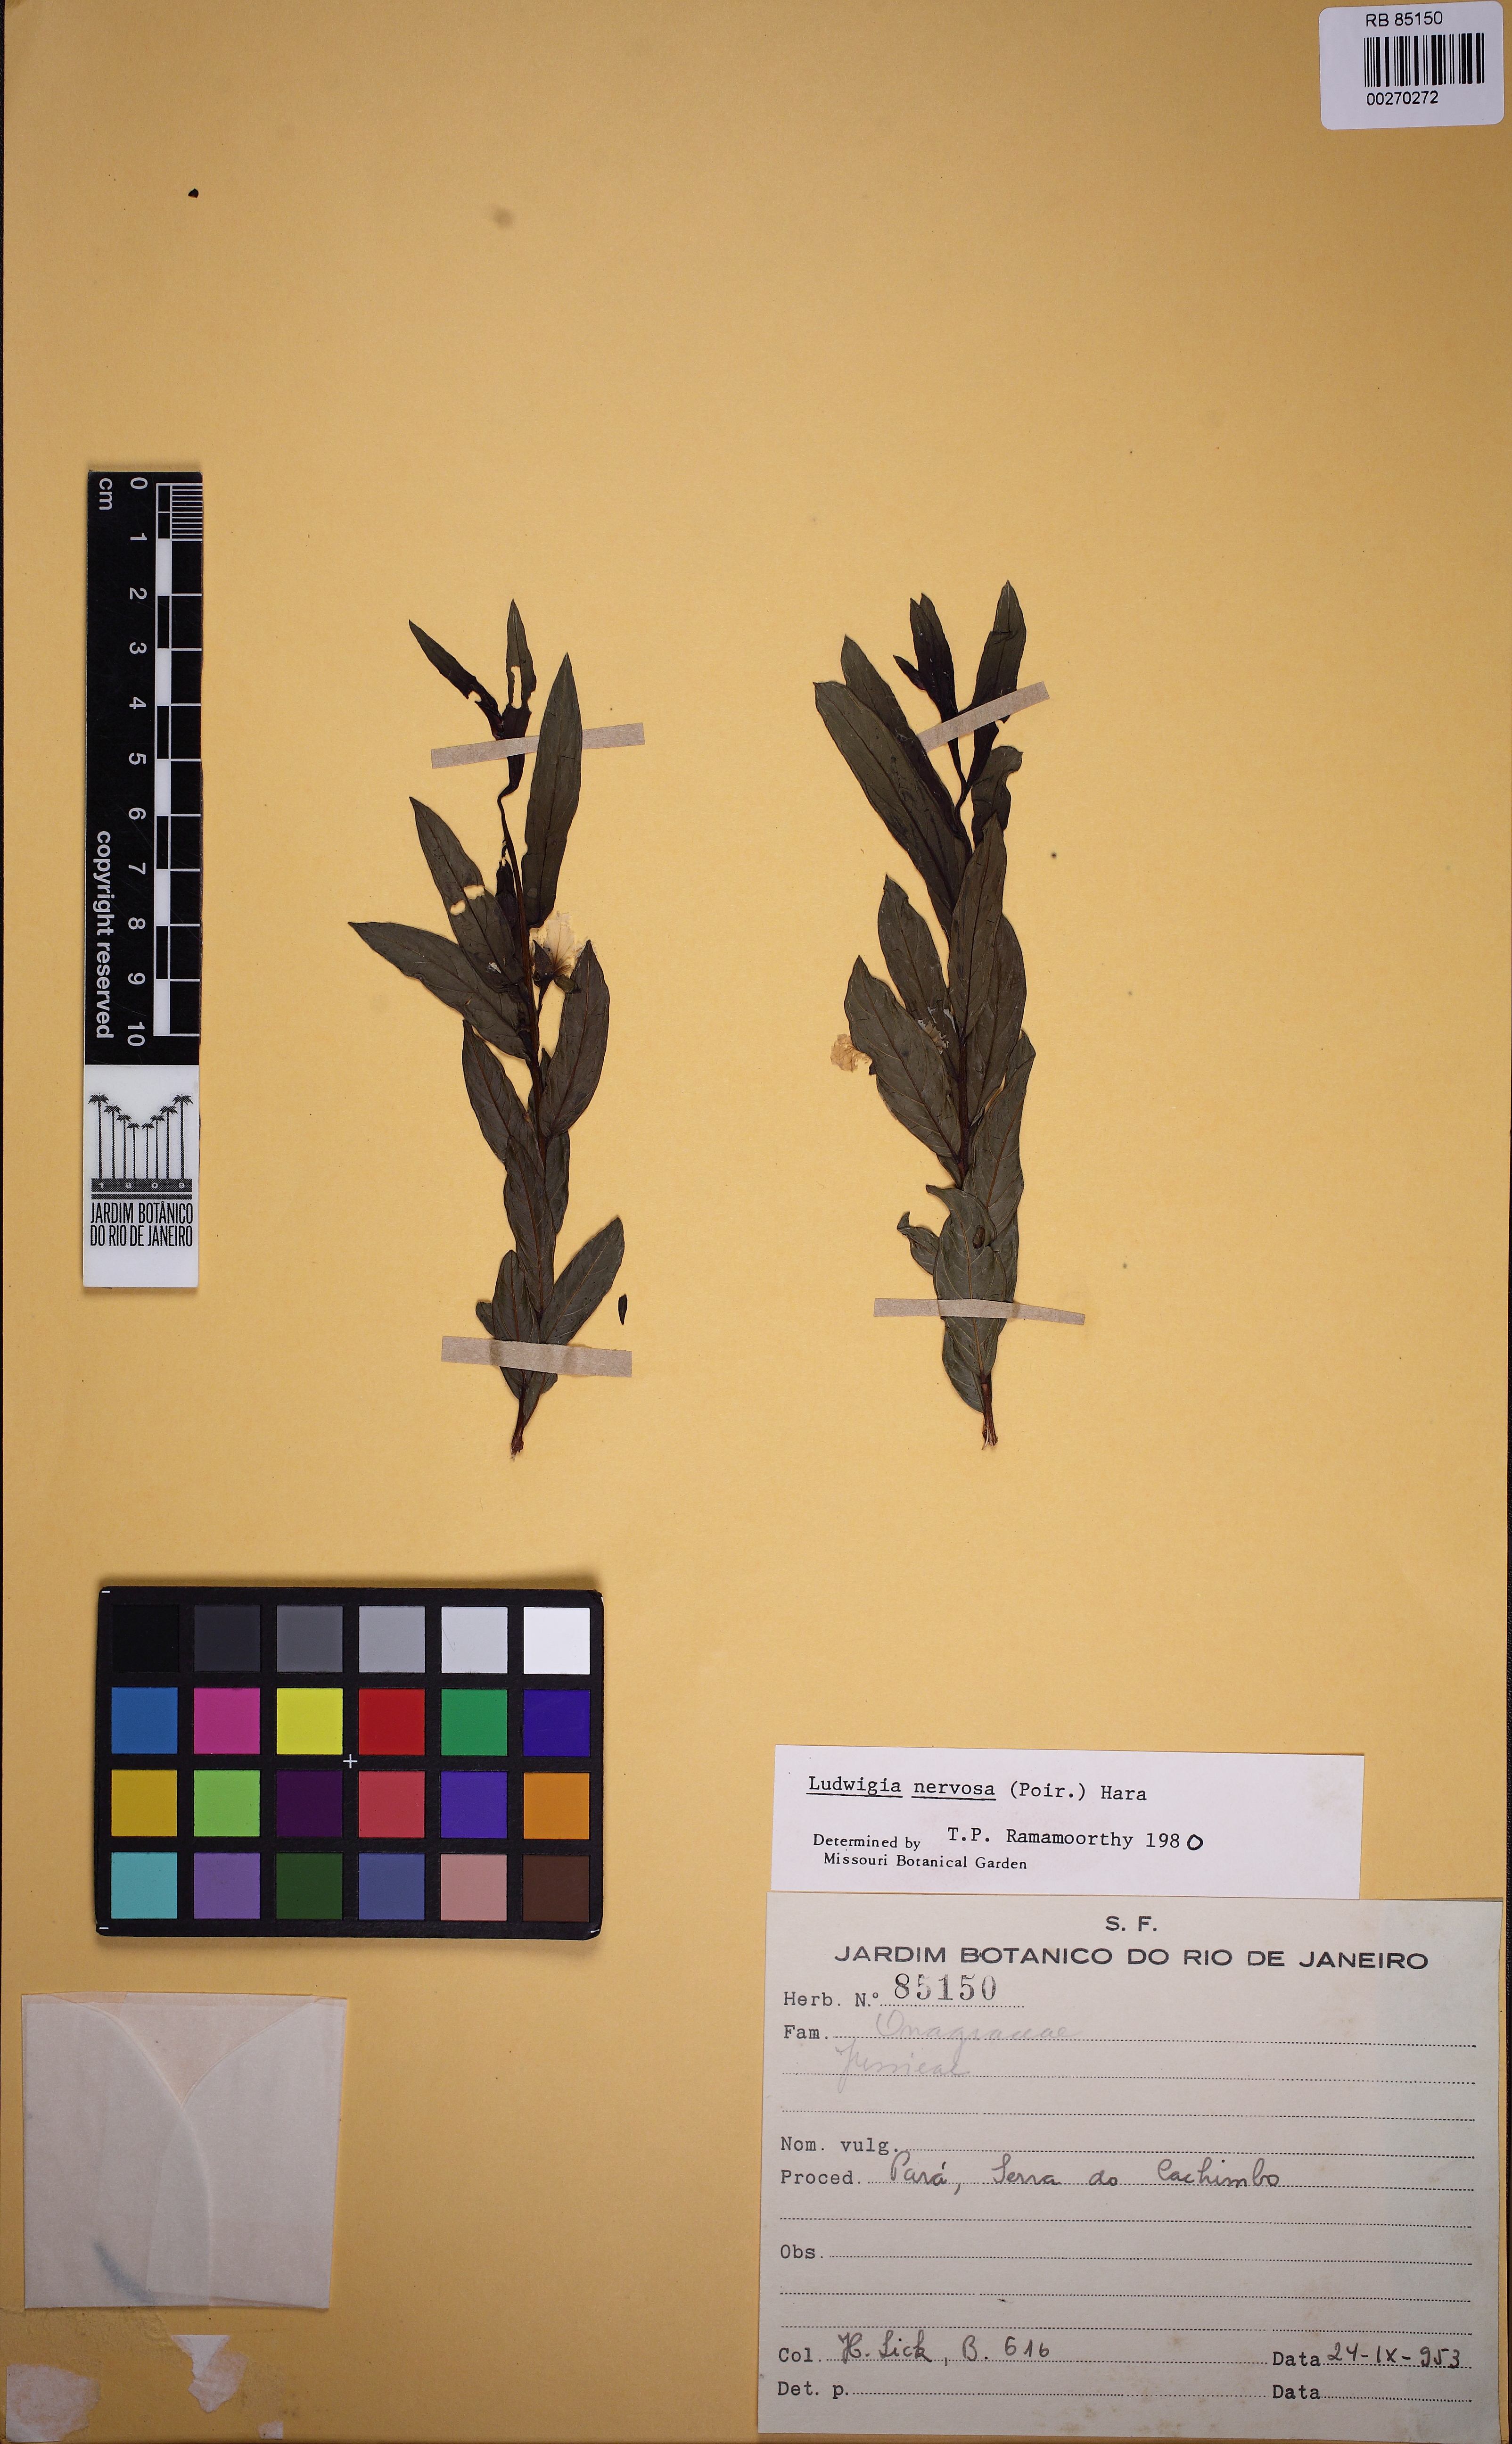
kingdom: Plantae
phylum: Tracheophyta
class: Magnoliopsida
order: Myrtales
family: Onagraceae
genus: Ludwigia
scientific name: Ludwigia nervosa
